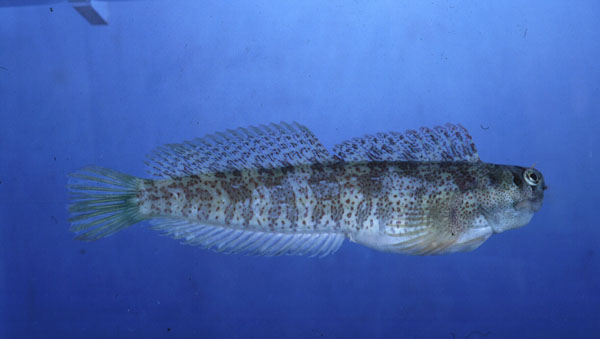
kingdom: Animalia
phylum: Chordata
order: Perciformes
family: Blenniidae
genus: Blenniella
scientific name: Blenniella periophthalmus
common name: Blue-dashed rockskipper
